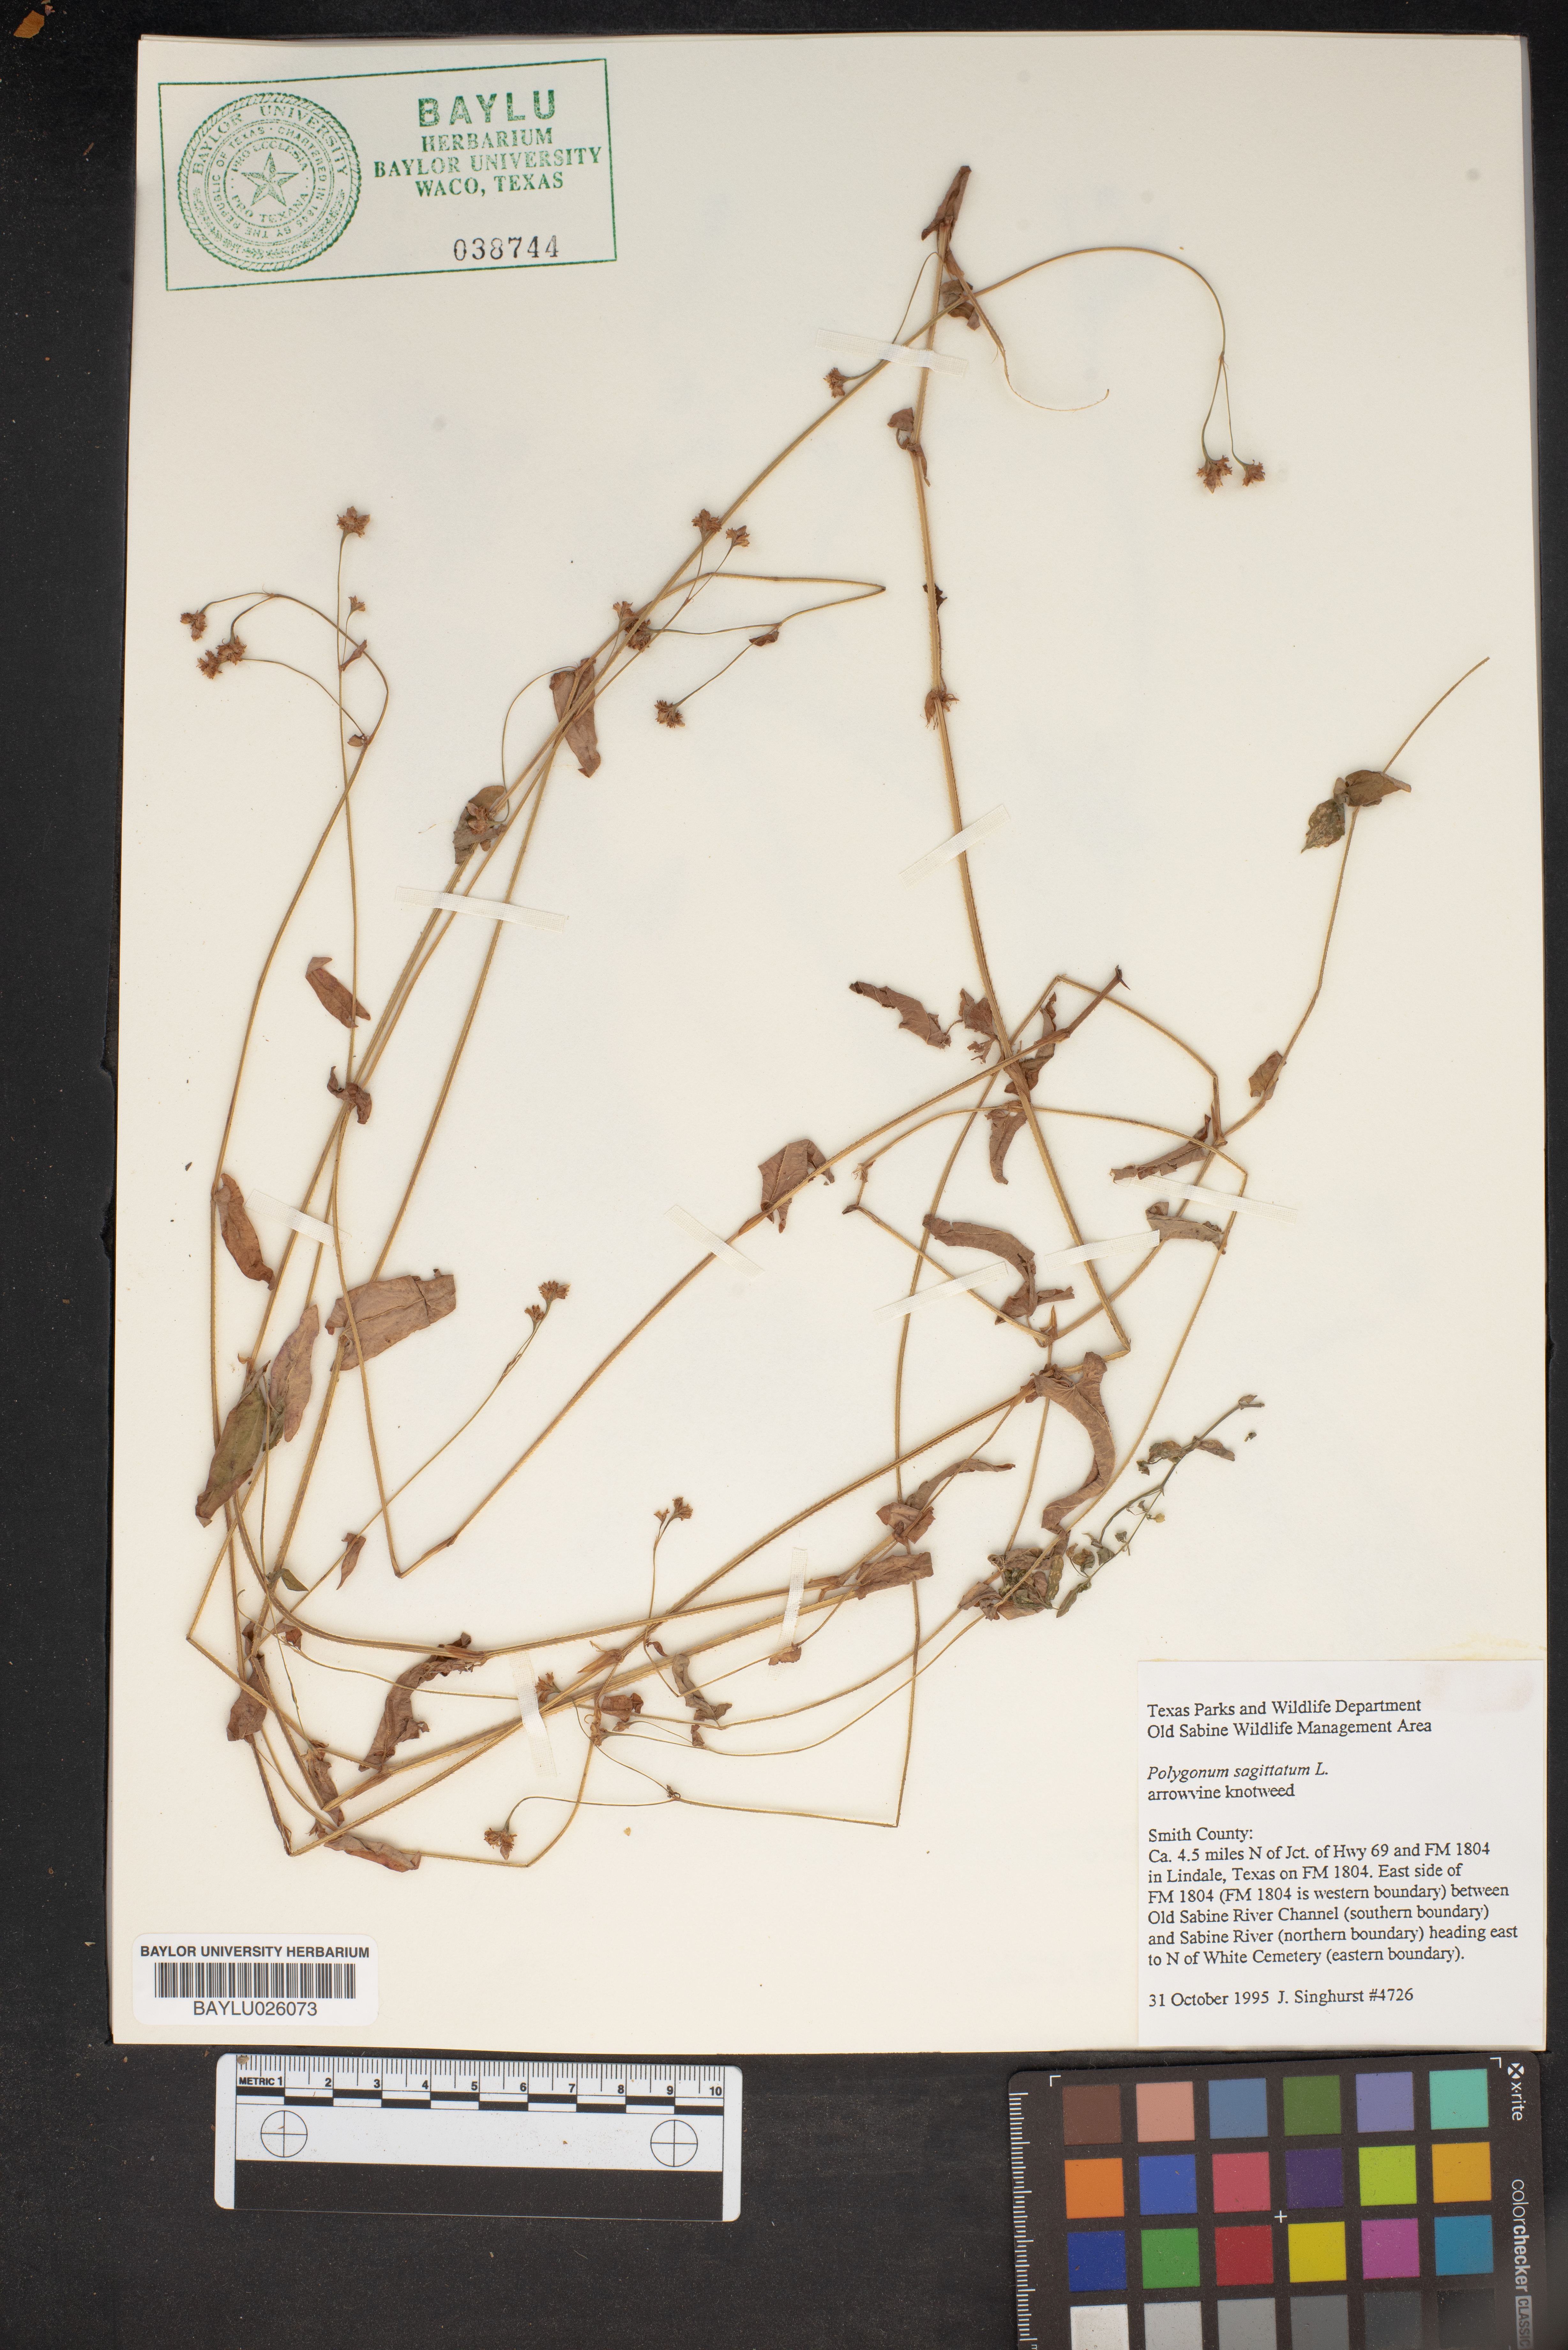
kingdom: Plantae
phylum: Tracheophyta
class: Magnoliopsida
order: Caryophyllales
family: Polygonaceae
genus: Persicaria
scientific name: Persicaria sagittata
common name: American tearthumb
